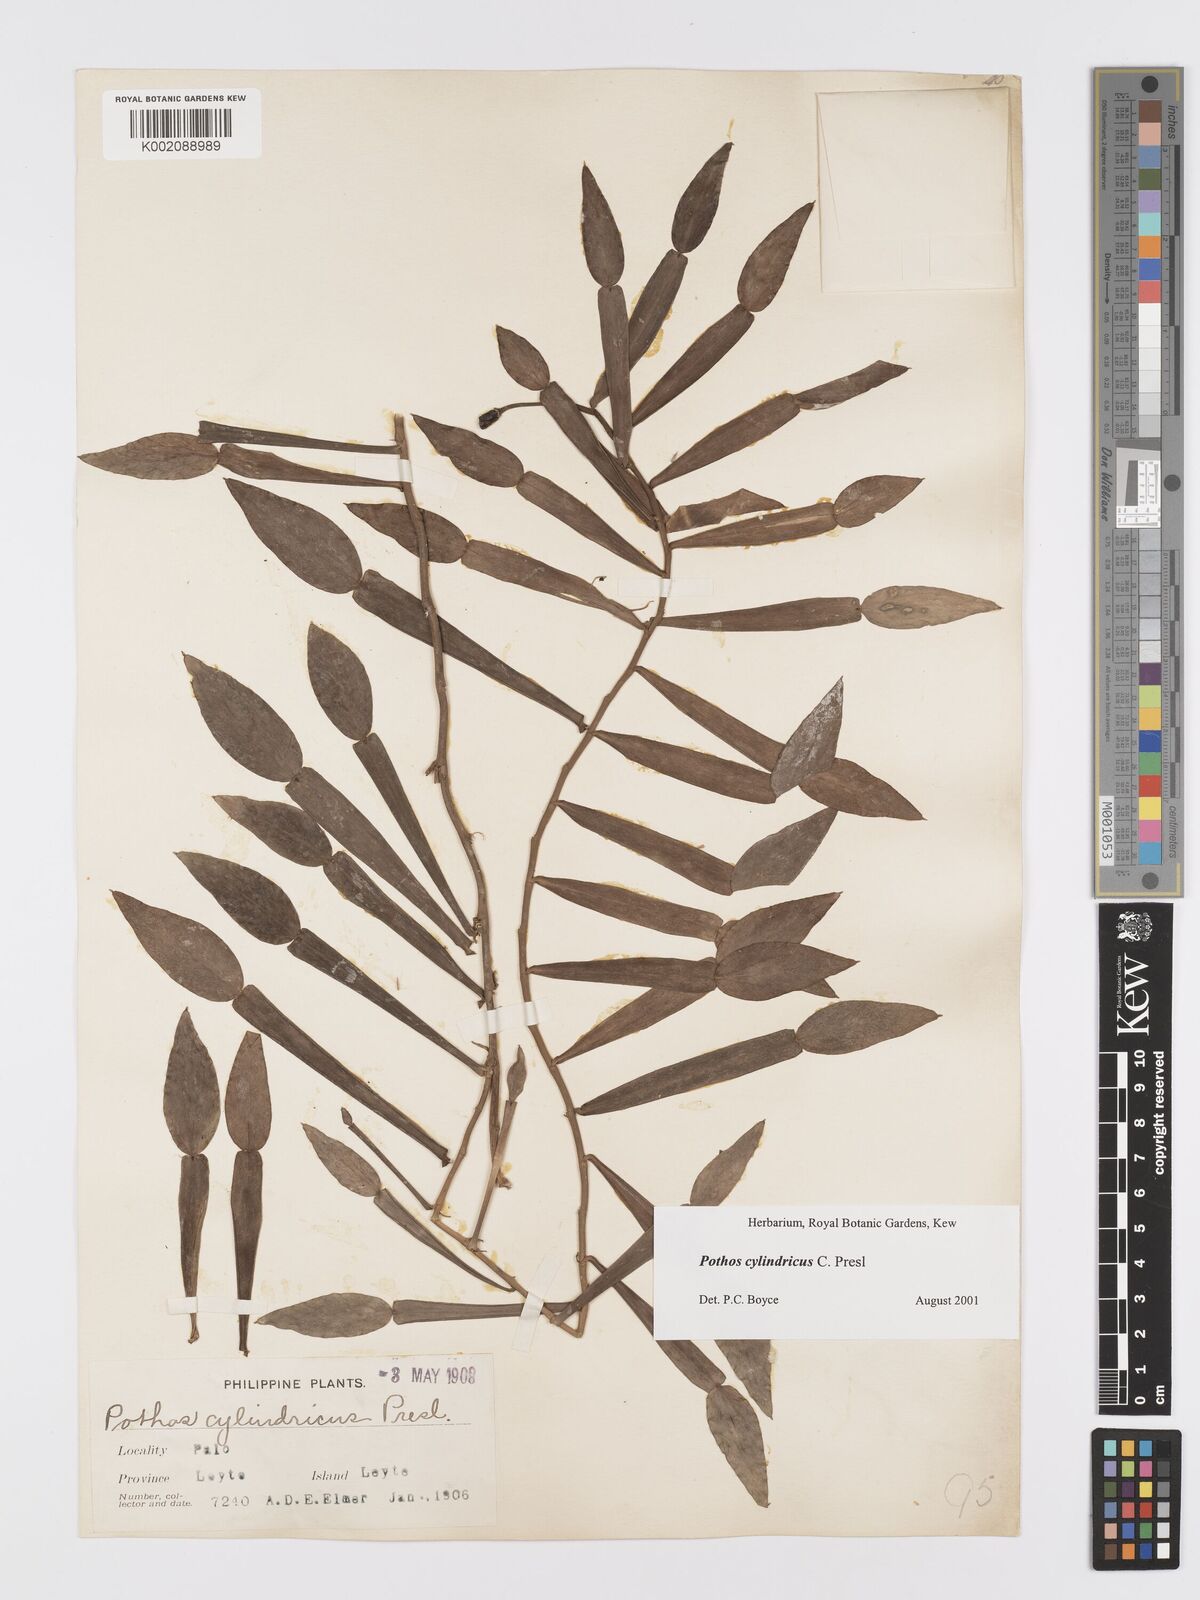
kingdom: Plantae
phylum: Tracheophyta
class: Liliopsida
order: Alismatales
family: Araceae
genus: Pothos
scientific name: Pothos cylindricus
